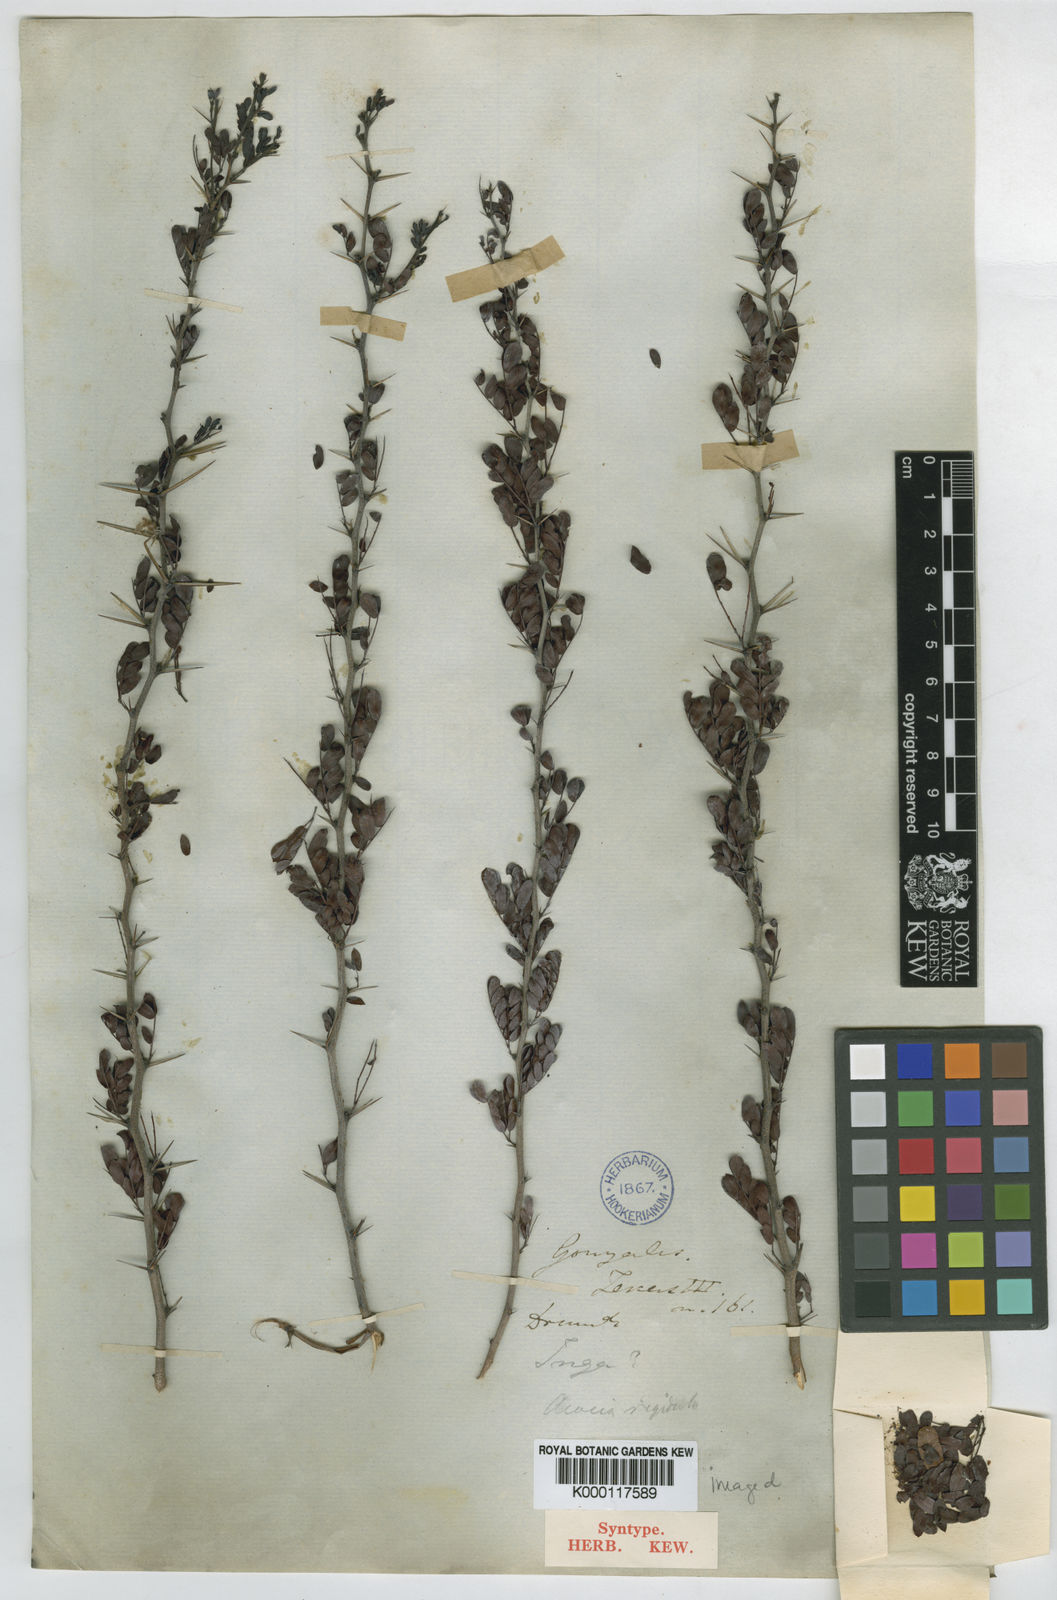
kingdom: Plantae
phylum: Tracheophyta
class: Magnoliopsida
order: Fabales
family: Fabaceae
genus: Vachellia
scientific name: Vachellia rigidula
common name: Blackbrush
